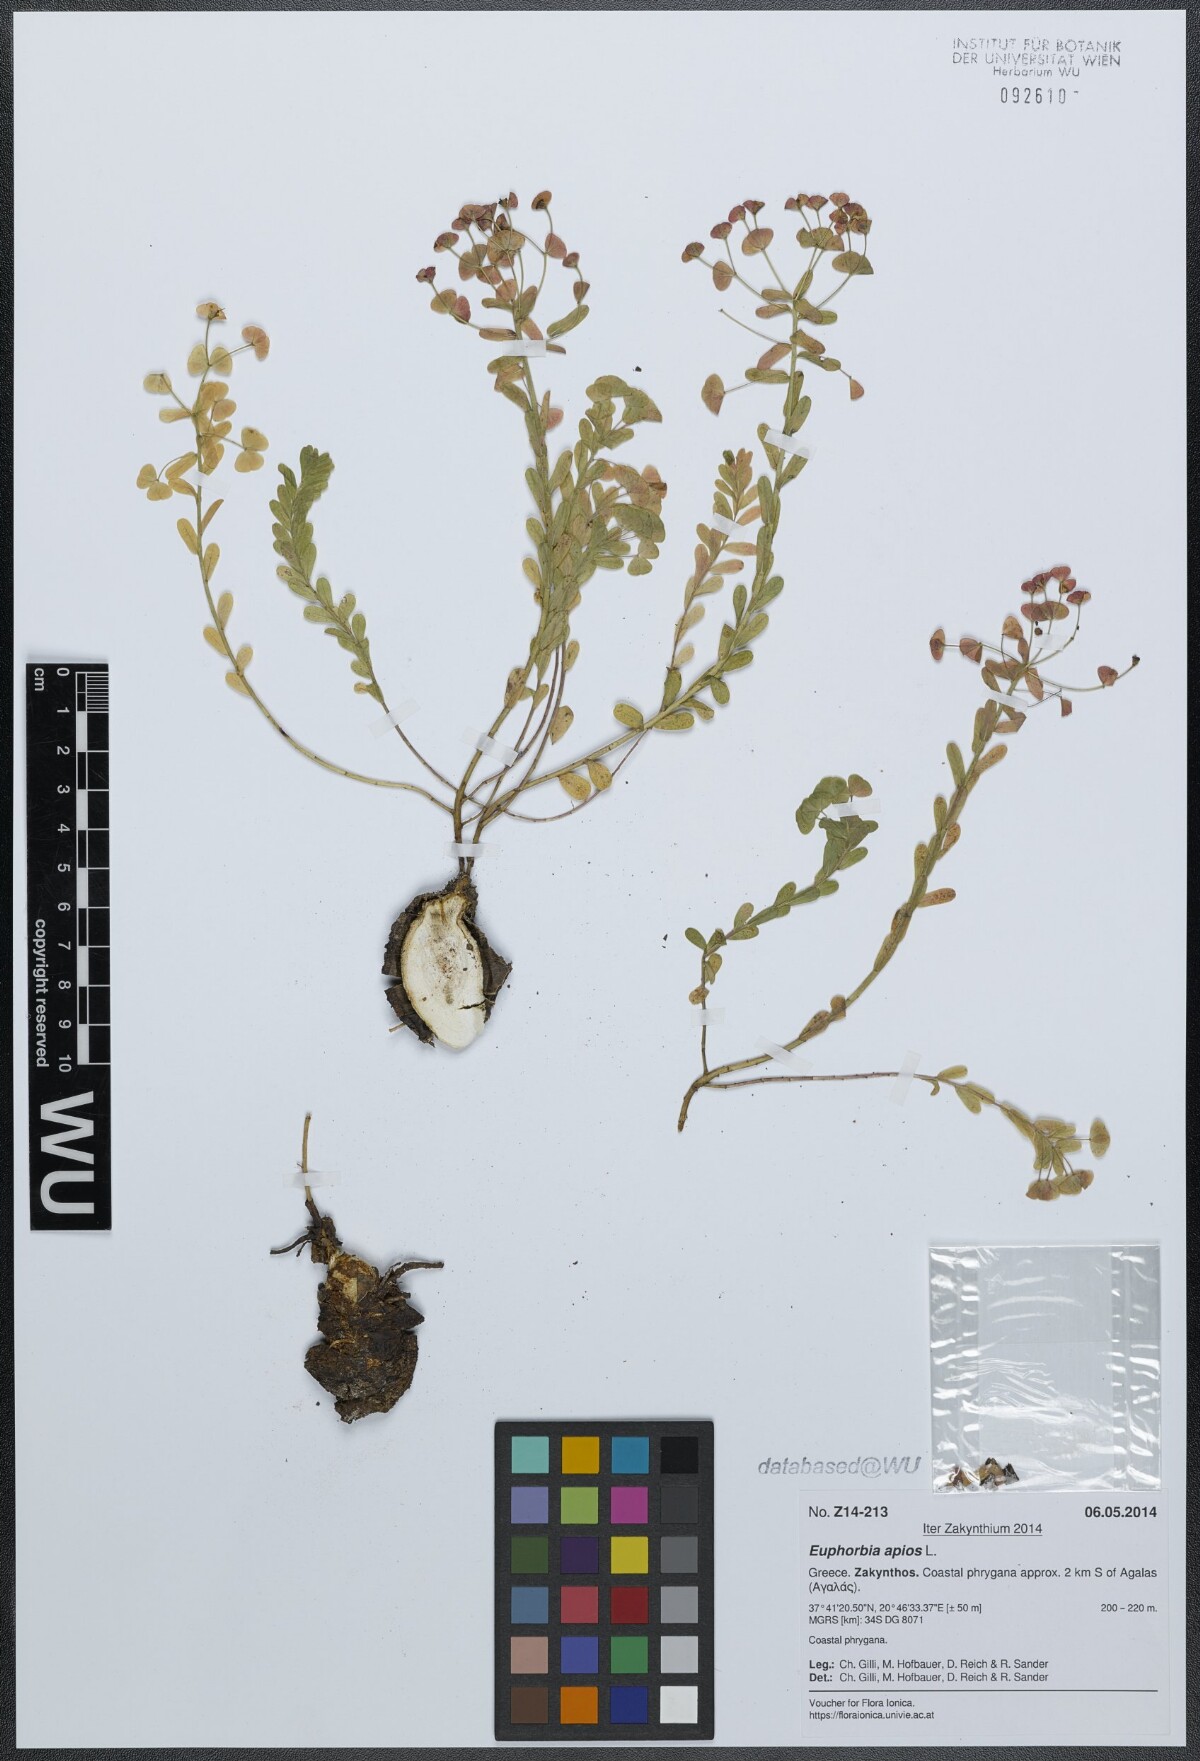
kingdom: Plantae
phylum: Tracheophyta
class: Magnoliopsida
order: Malpighiales
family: Euphorbiaceae
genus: Euphorbia
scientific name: Euphorbia apios
